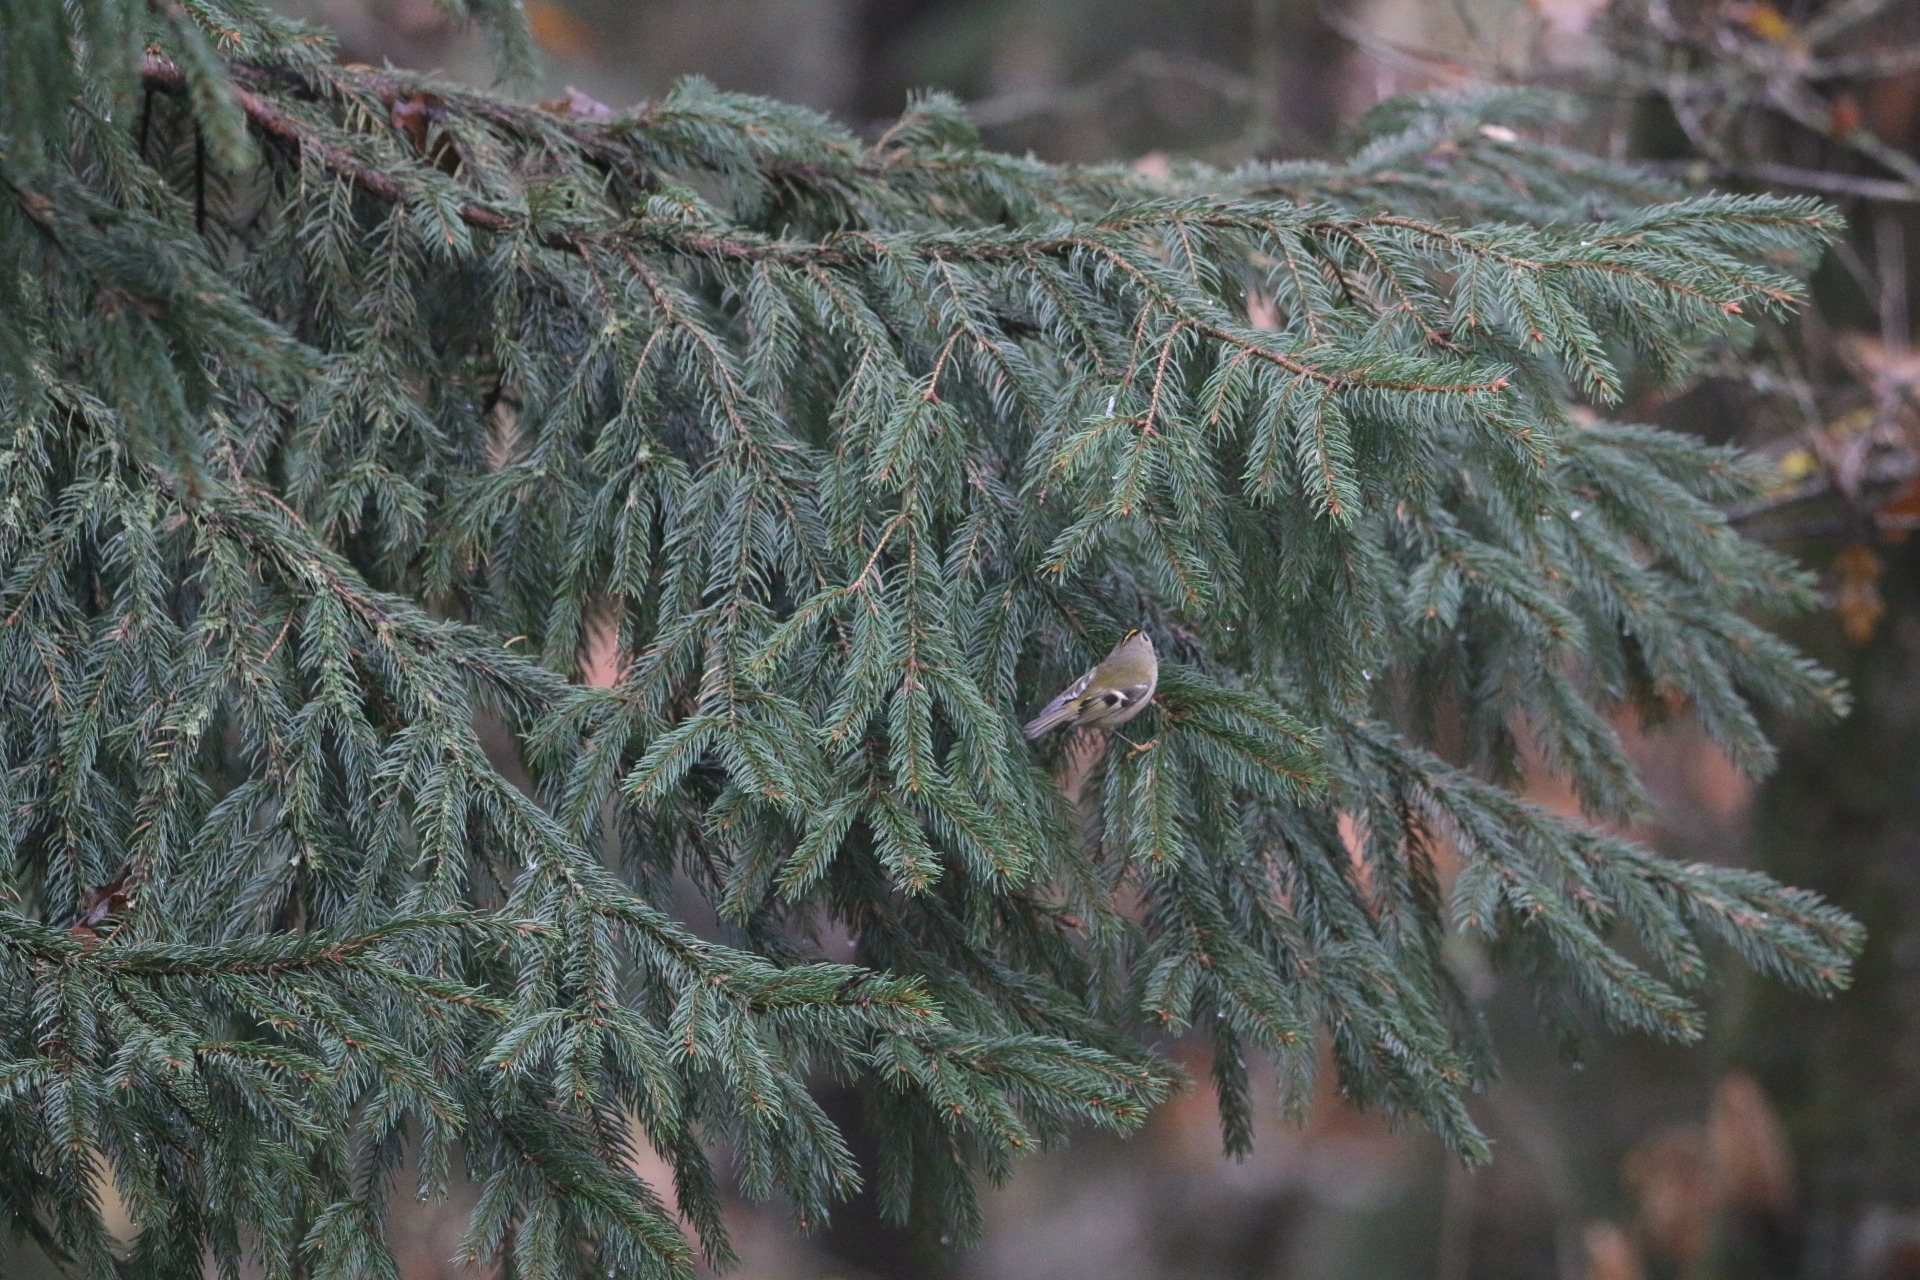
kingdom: Animalia
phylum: Chordata
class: Aves
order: Passeriformes
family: Regulidae
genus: Regulus
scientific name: Regulus regulus
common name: Fuglekonge
